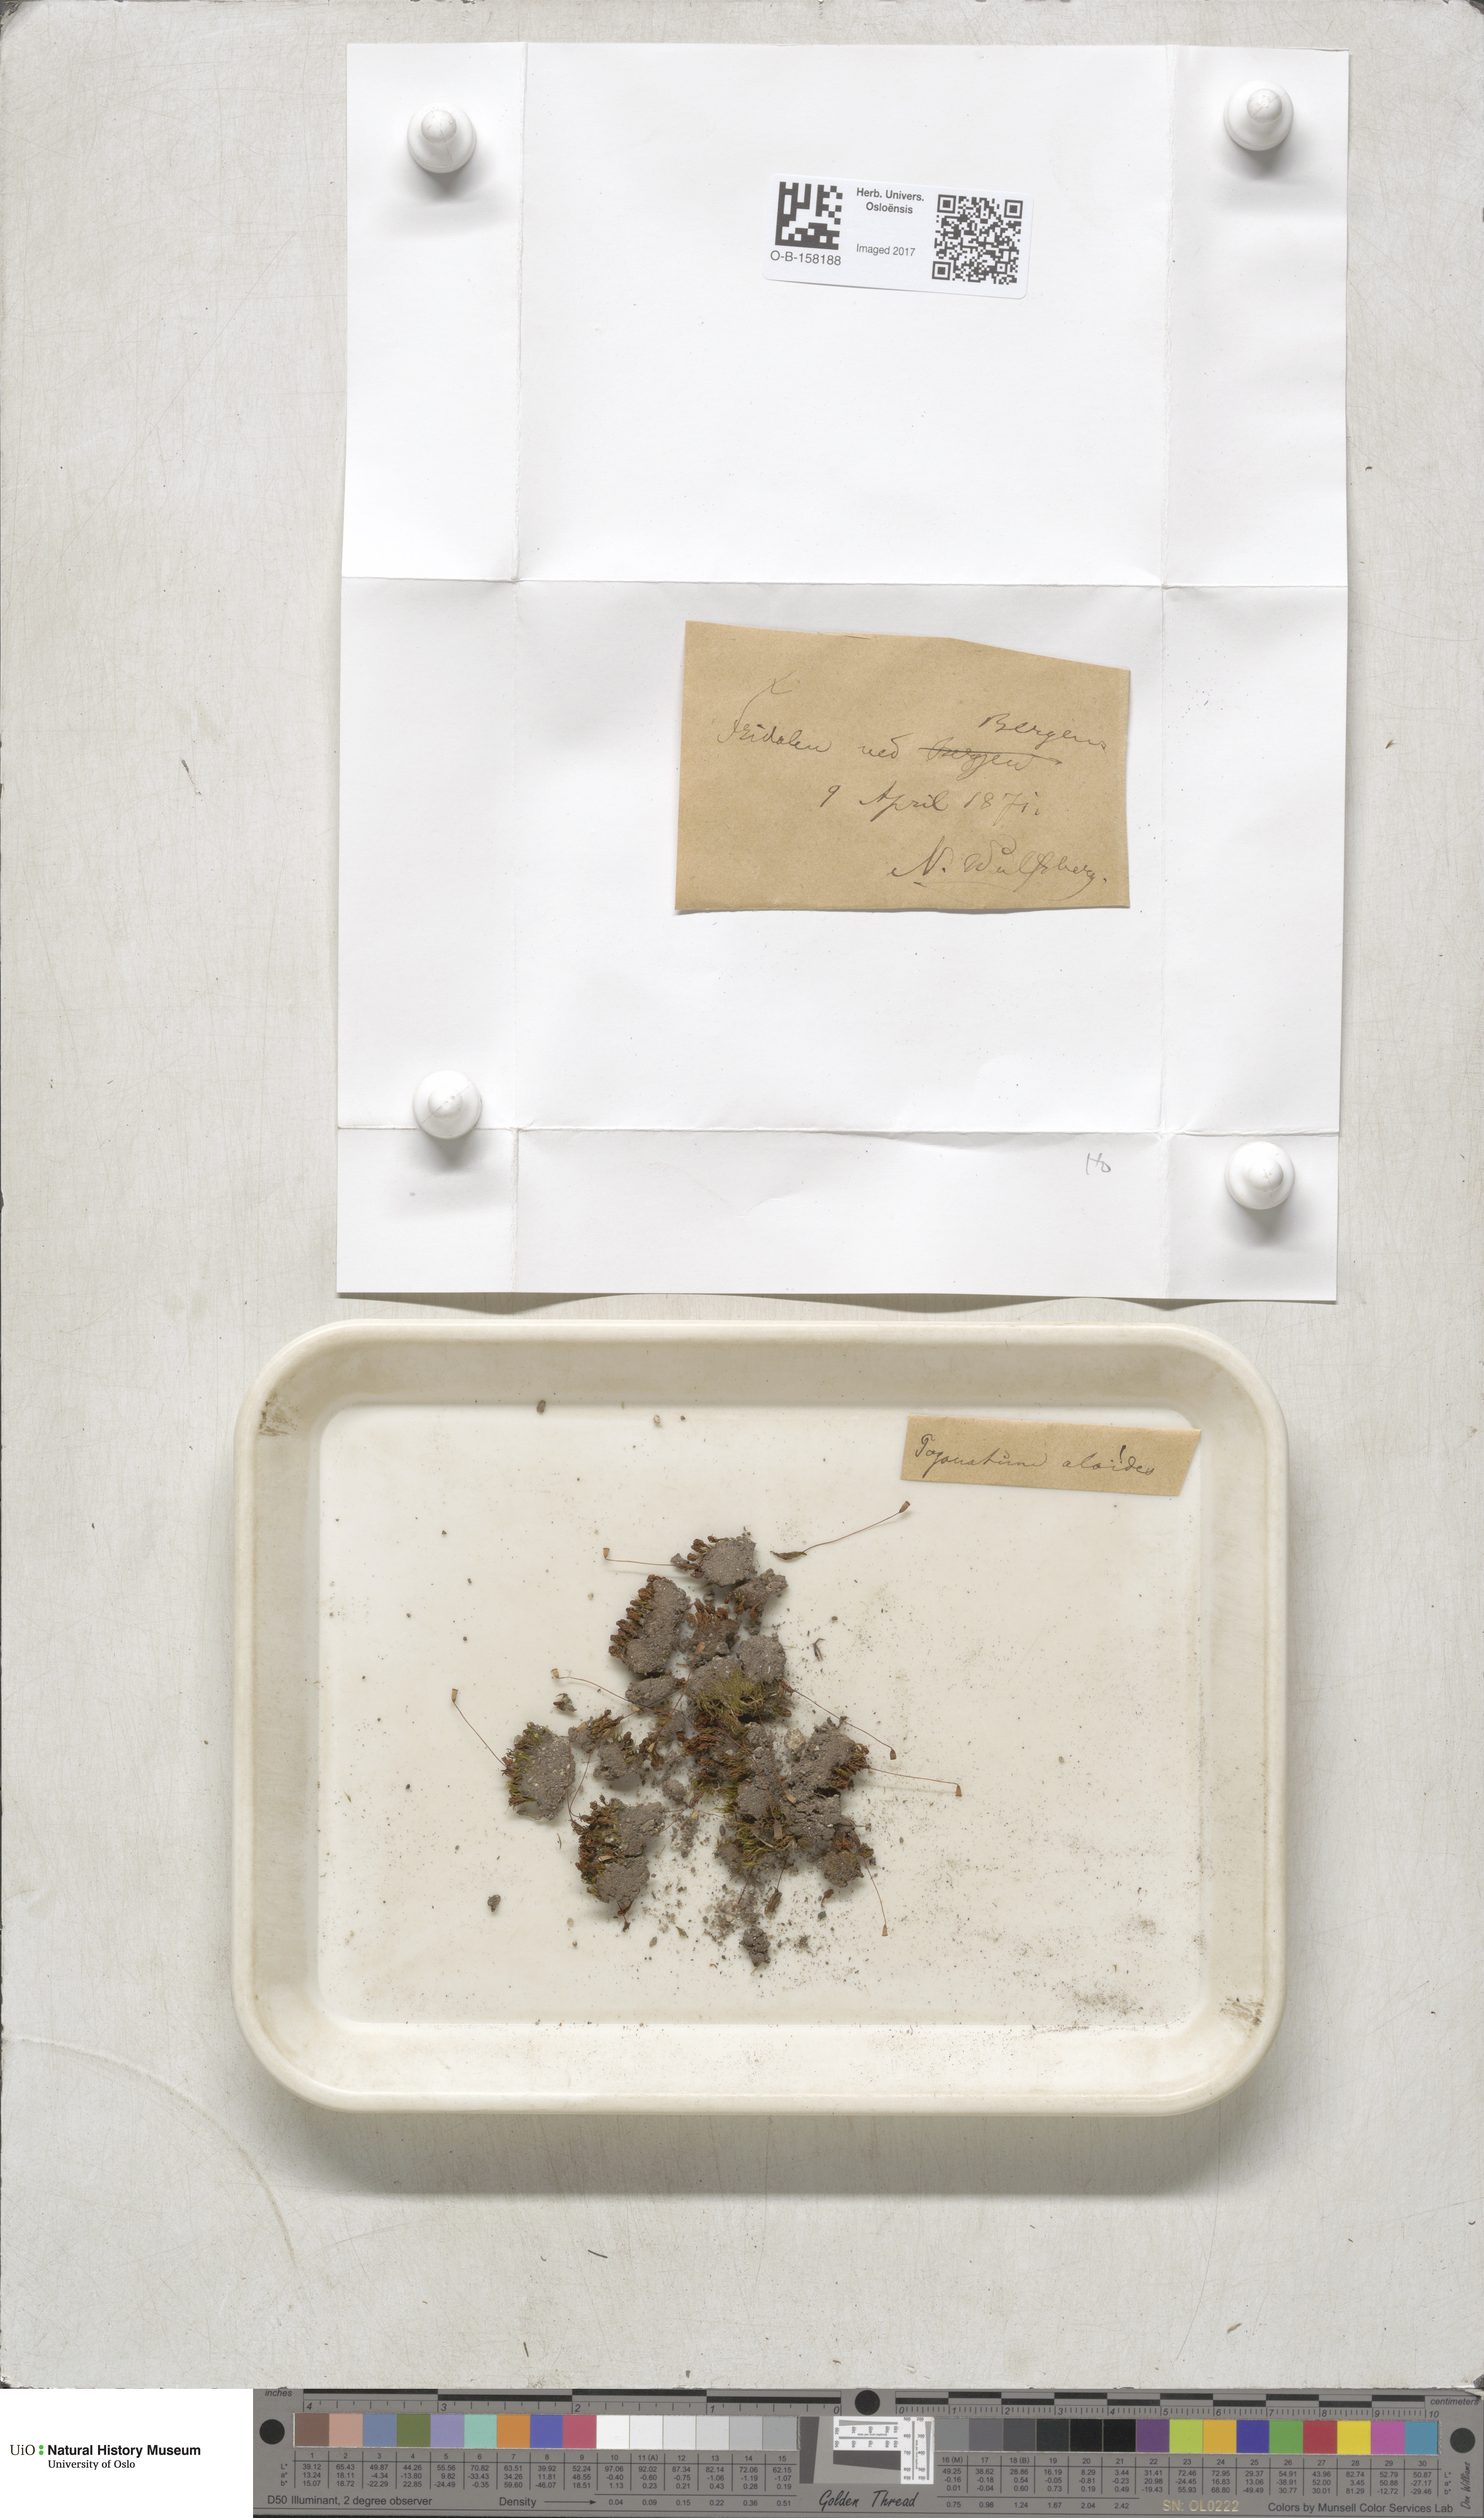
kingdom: Plantae
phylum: Bryophyta
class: Polytrichopsida
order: Polytrichales
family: Polytrichaceae
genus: Pogonatum
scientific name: Pogonatum aloides
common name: Aloe haircap
